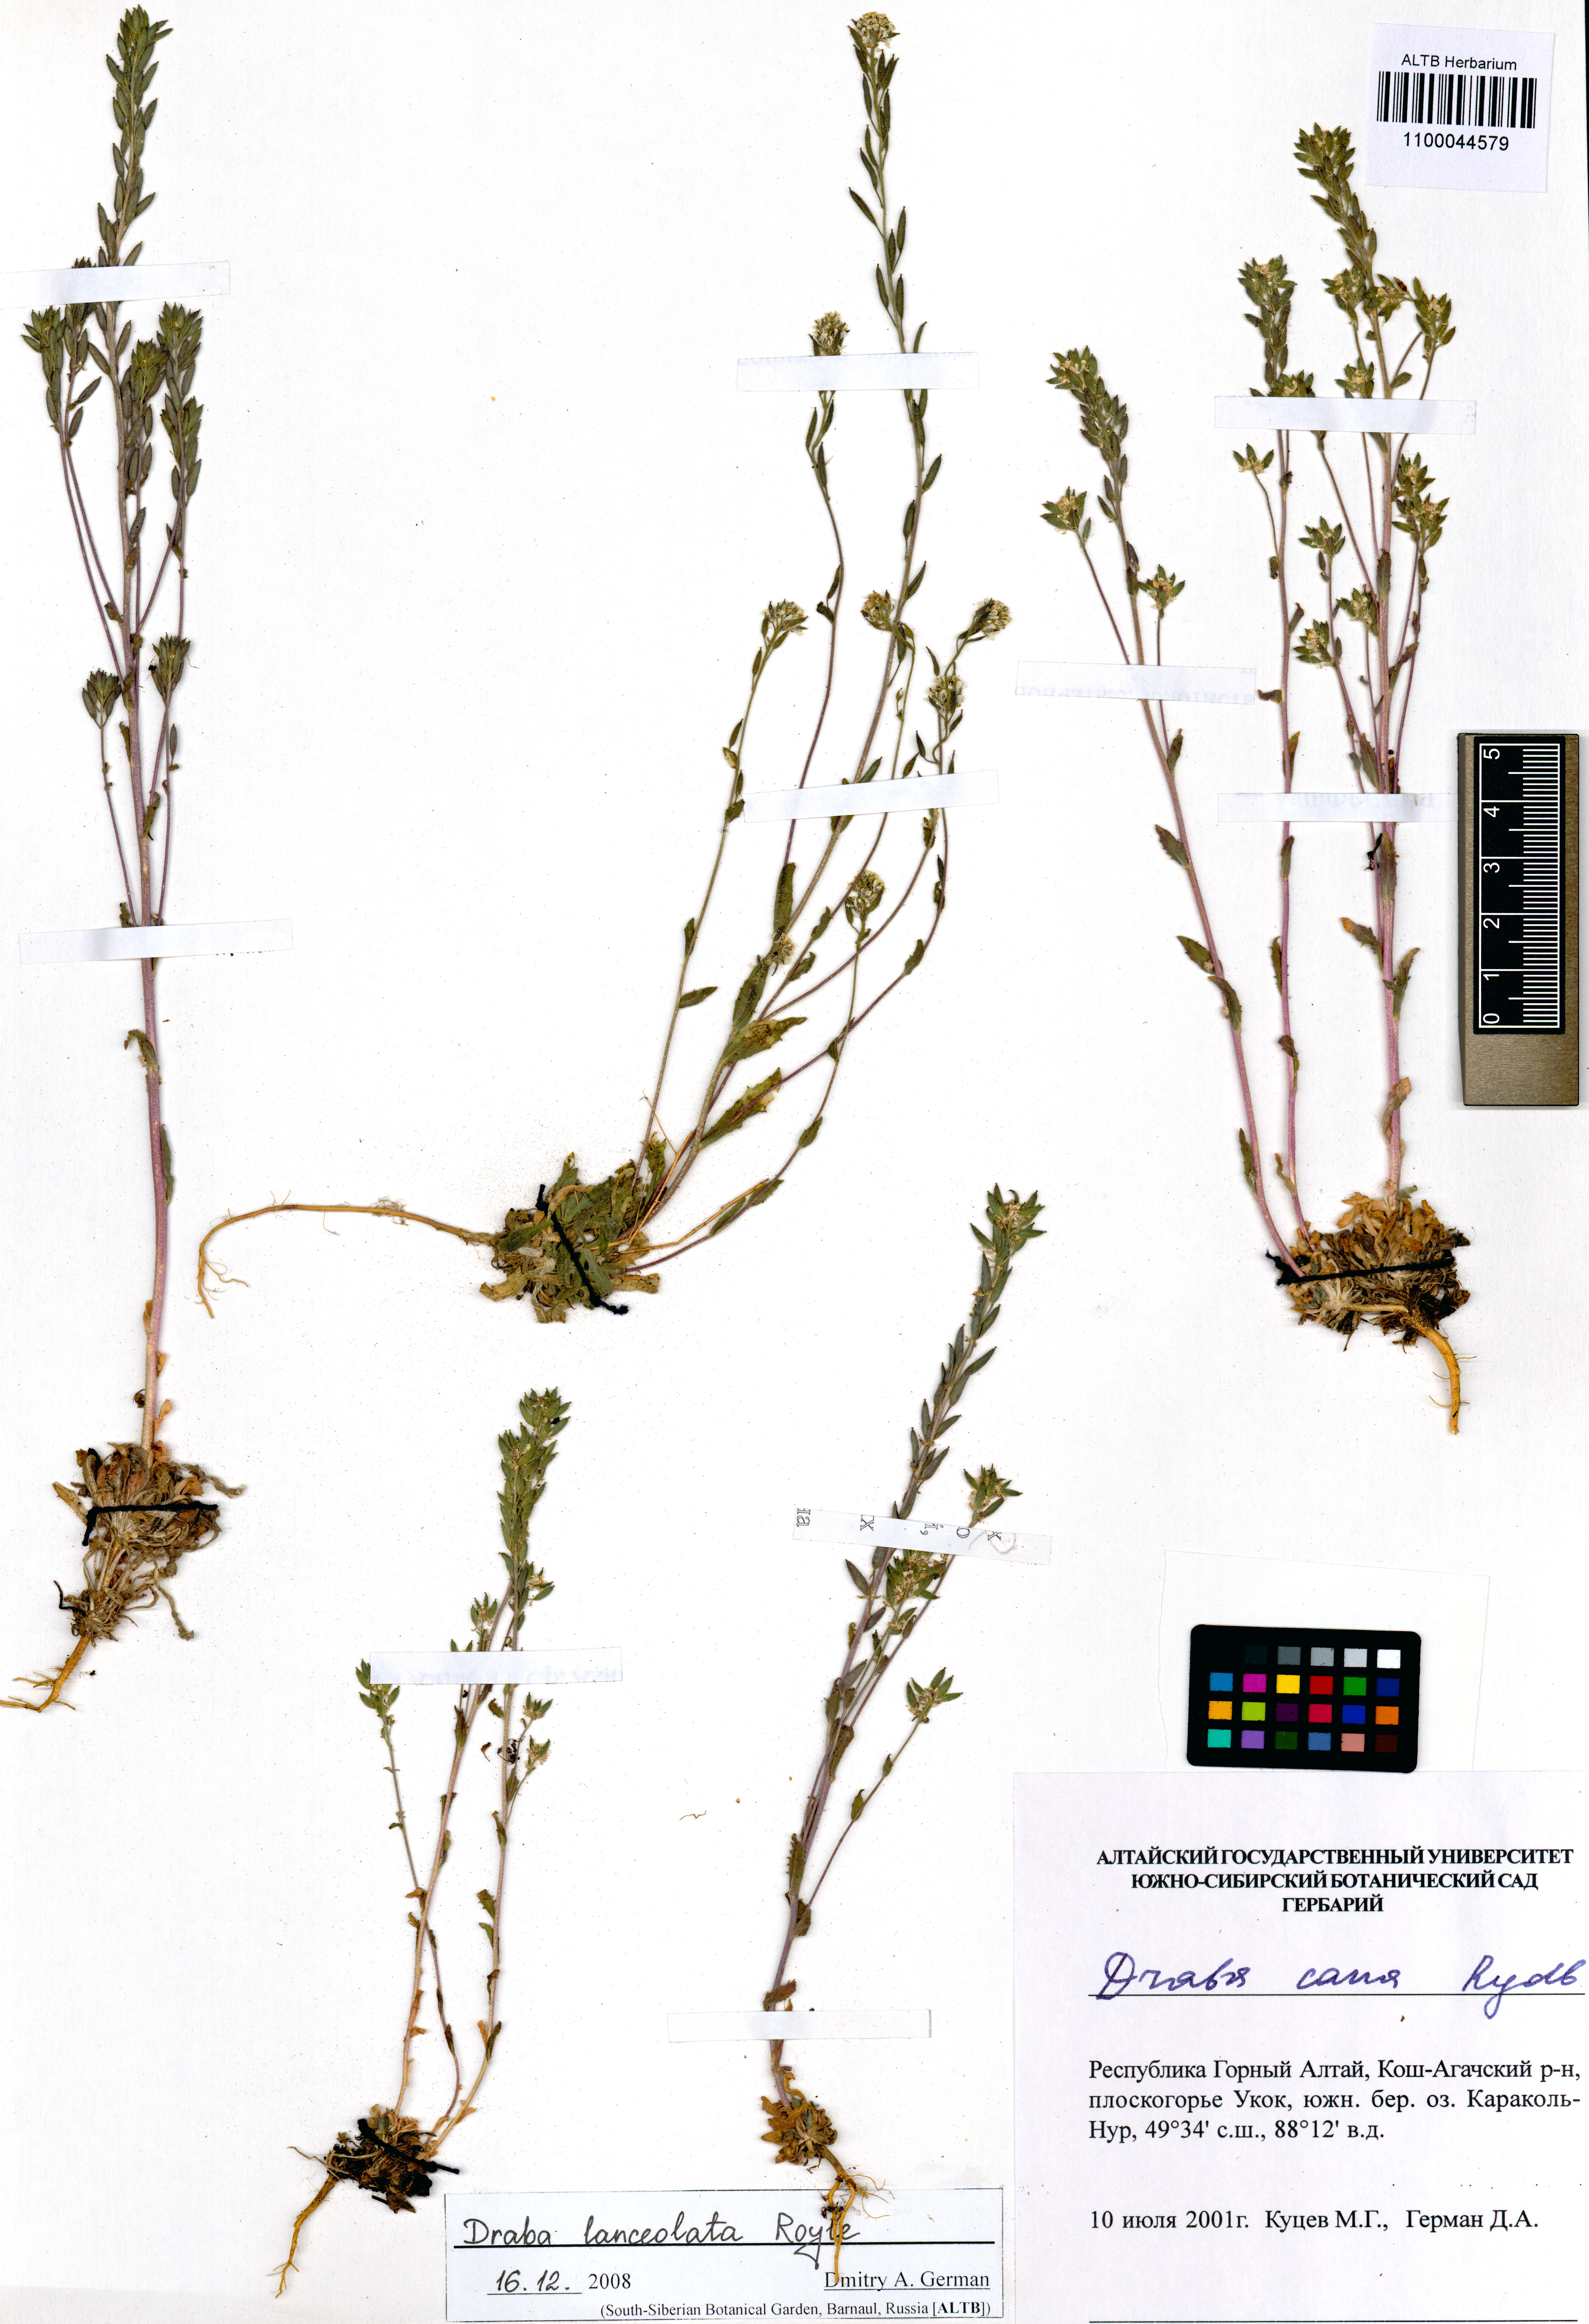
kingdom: Plantae
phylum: Tracheophyta
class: Magnoliopsida
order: Brassicales
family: Brassicaceae
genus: Draba
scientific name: Draba lanceolata
